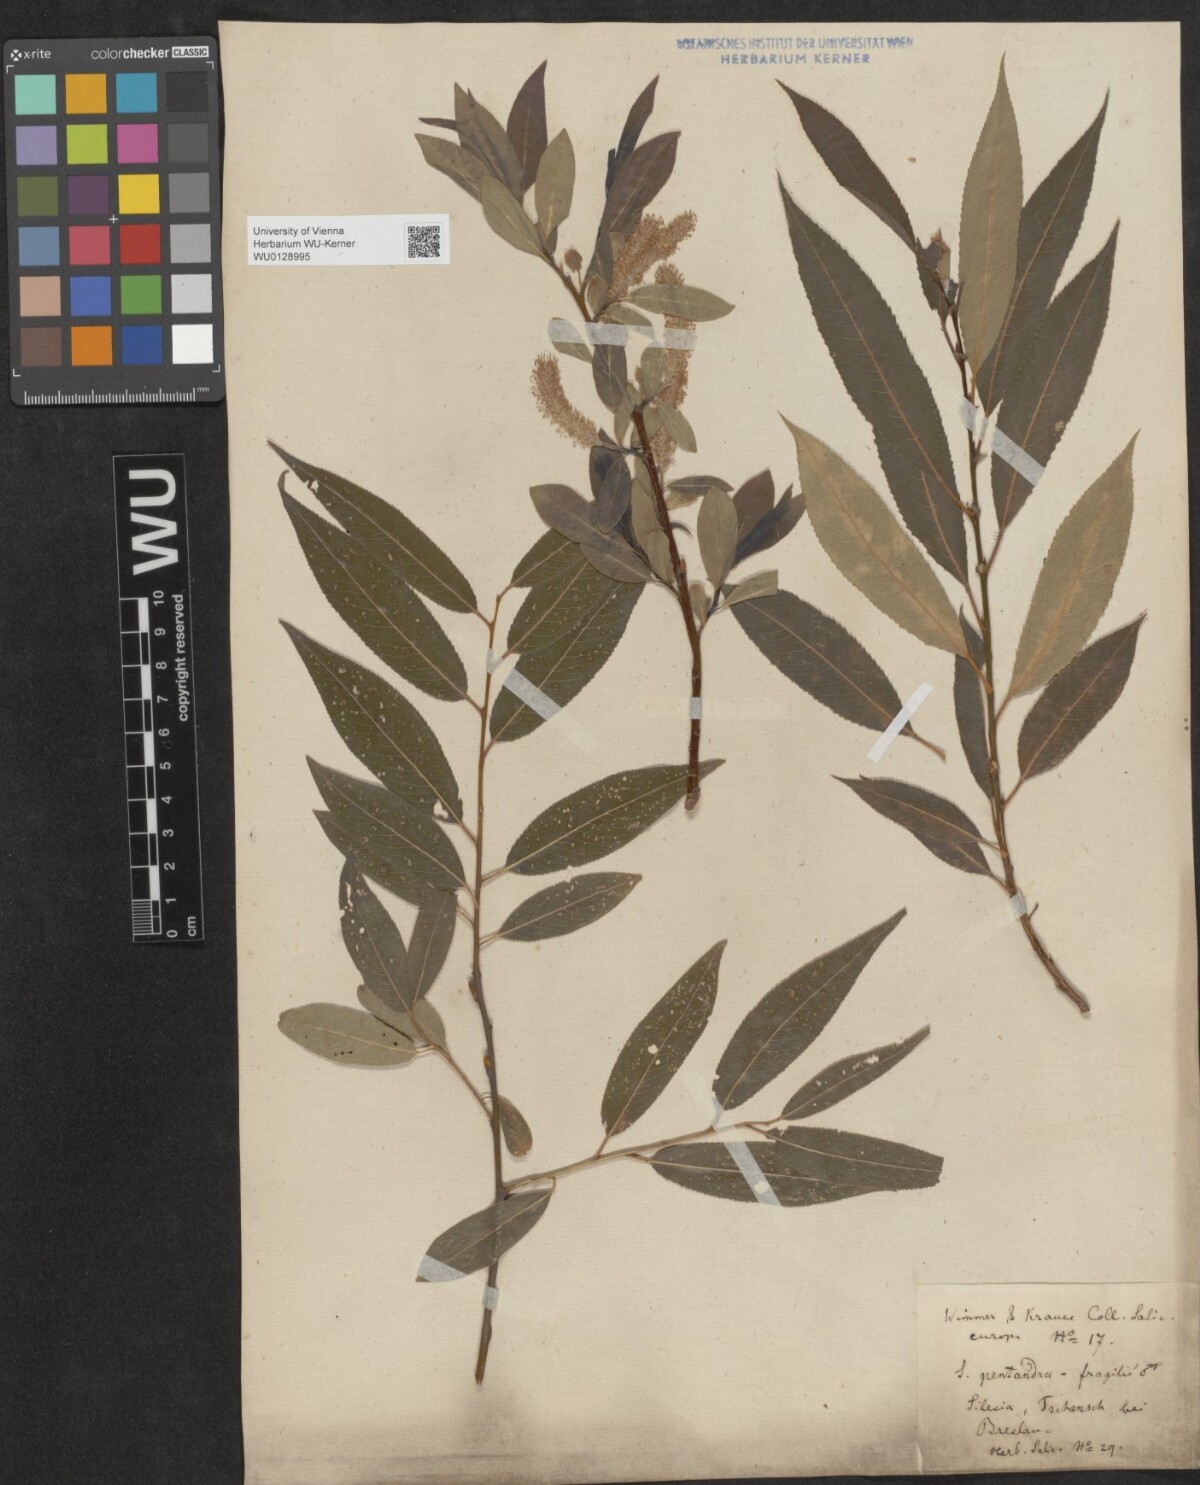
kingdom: Plantae
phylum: Tracheophyta
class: Magnoliopsida
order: Malpighiales
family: Salicaceae
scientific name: Salicaceae
